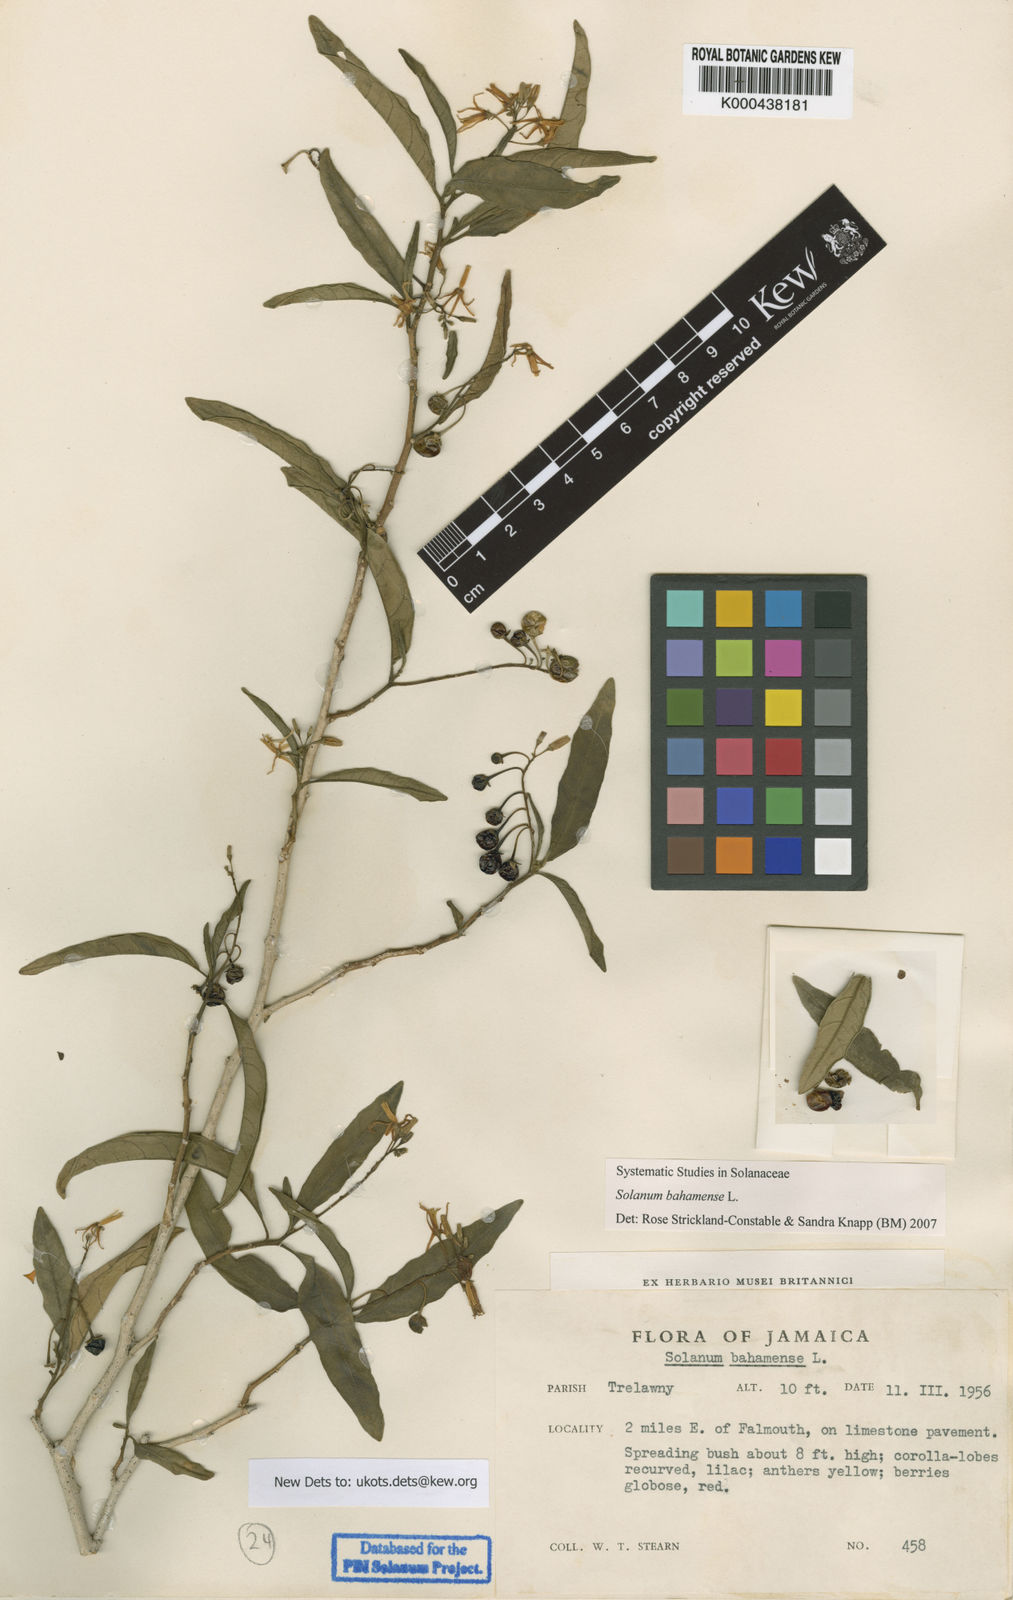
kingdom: Plantae
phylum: Tracheophyta
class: Magnoliopsida
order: Solanales
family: Solanaceae
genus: Solanum
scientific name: Solanum bahamense
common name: Canker-berry
